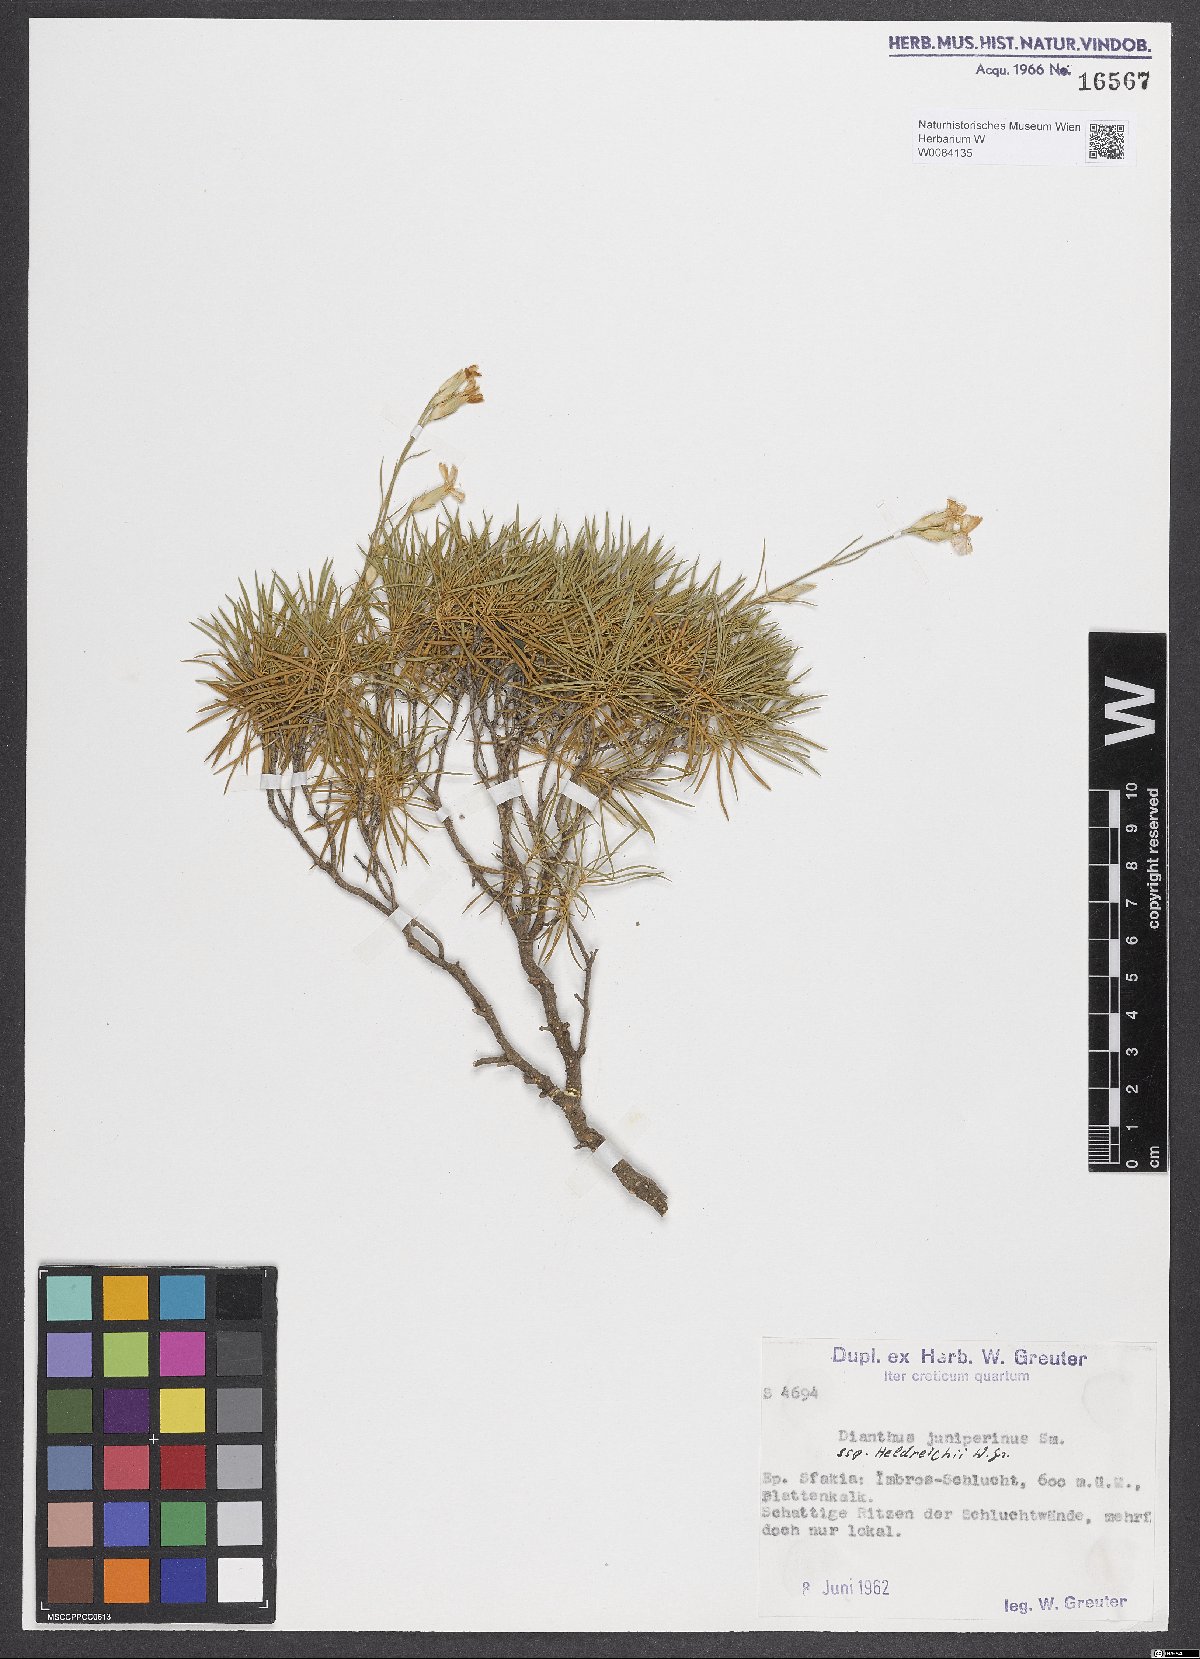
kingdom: Plantae
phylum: Tracheophyta
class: Magnoliopsida
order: Caryophyllales
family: Caryophyllaceae
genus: Dianthus
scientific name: Dianthus juniperinus
